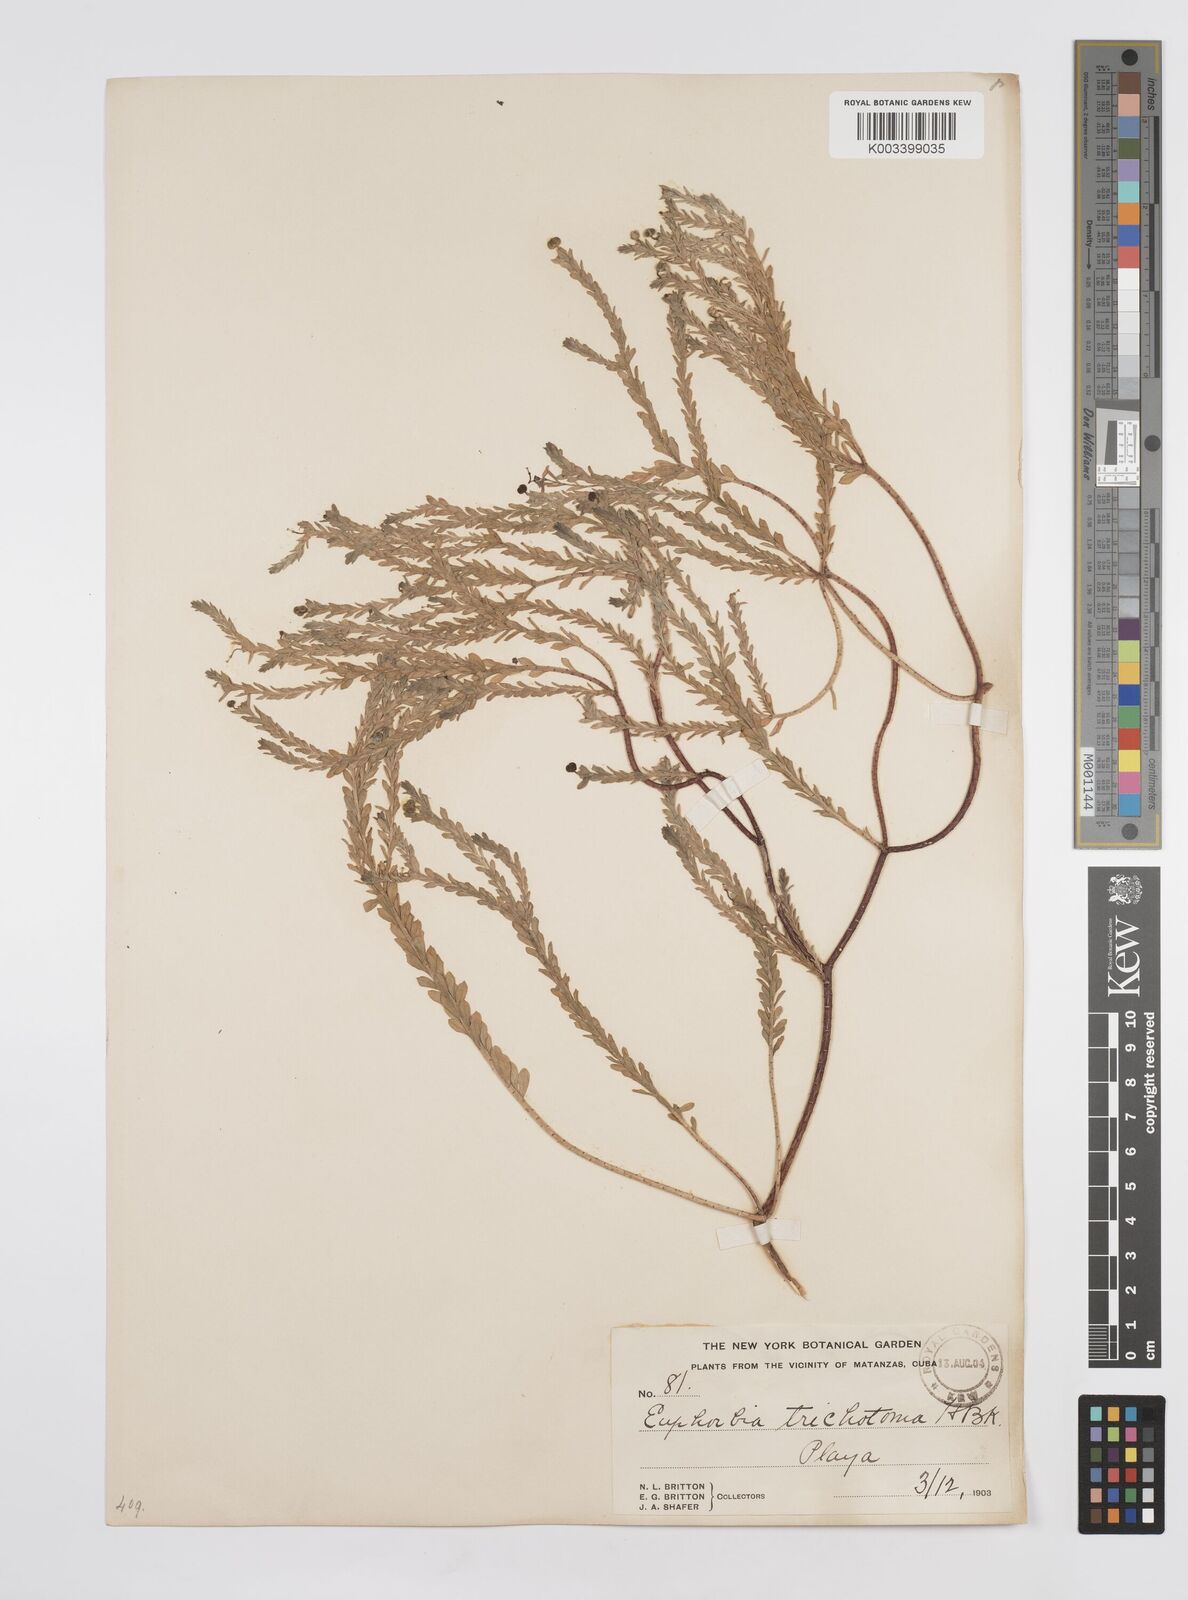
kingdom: Plantae
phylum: Tracheophyta
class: Magnoliopsida
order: Malpighiales
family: Euphorbiaceae
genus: Euphorbia
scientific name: Euphorbia trichotoma
